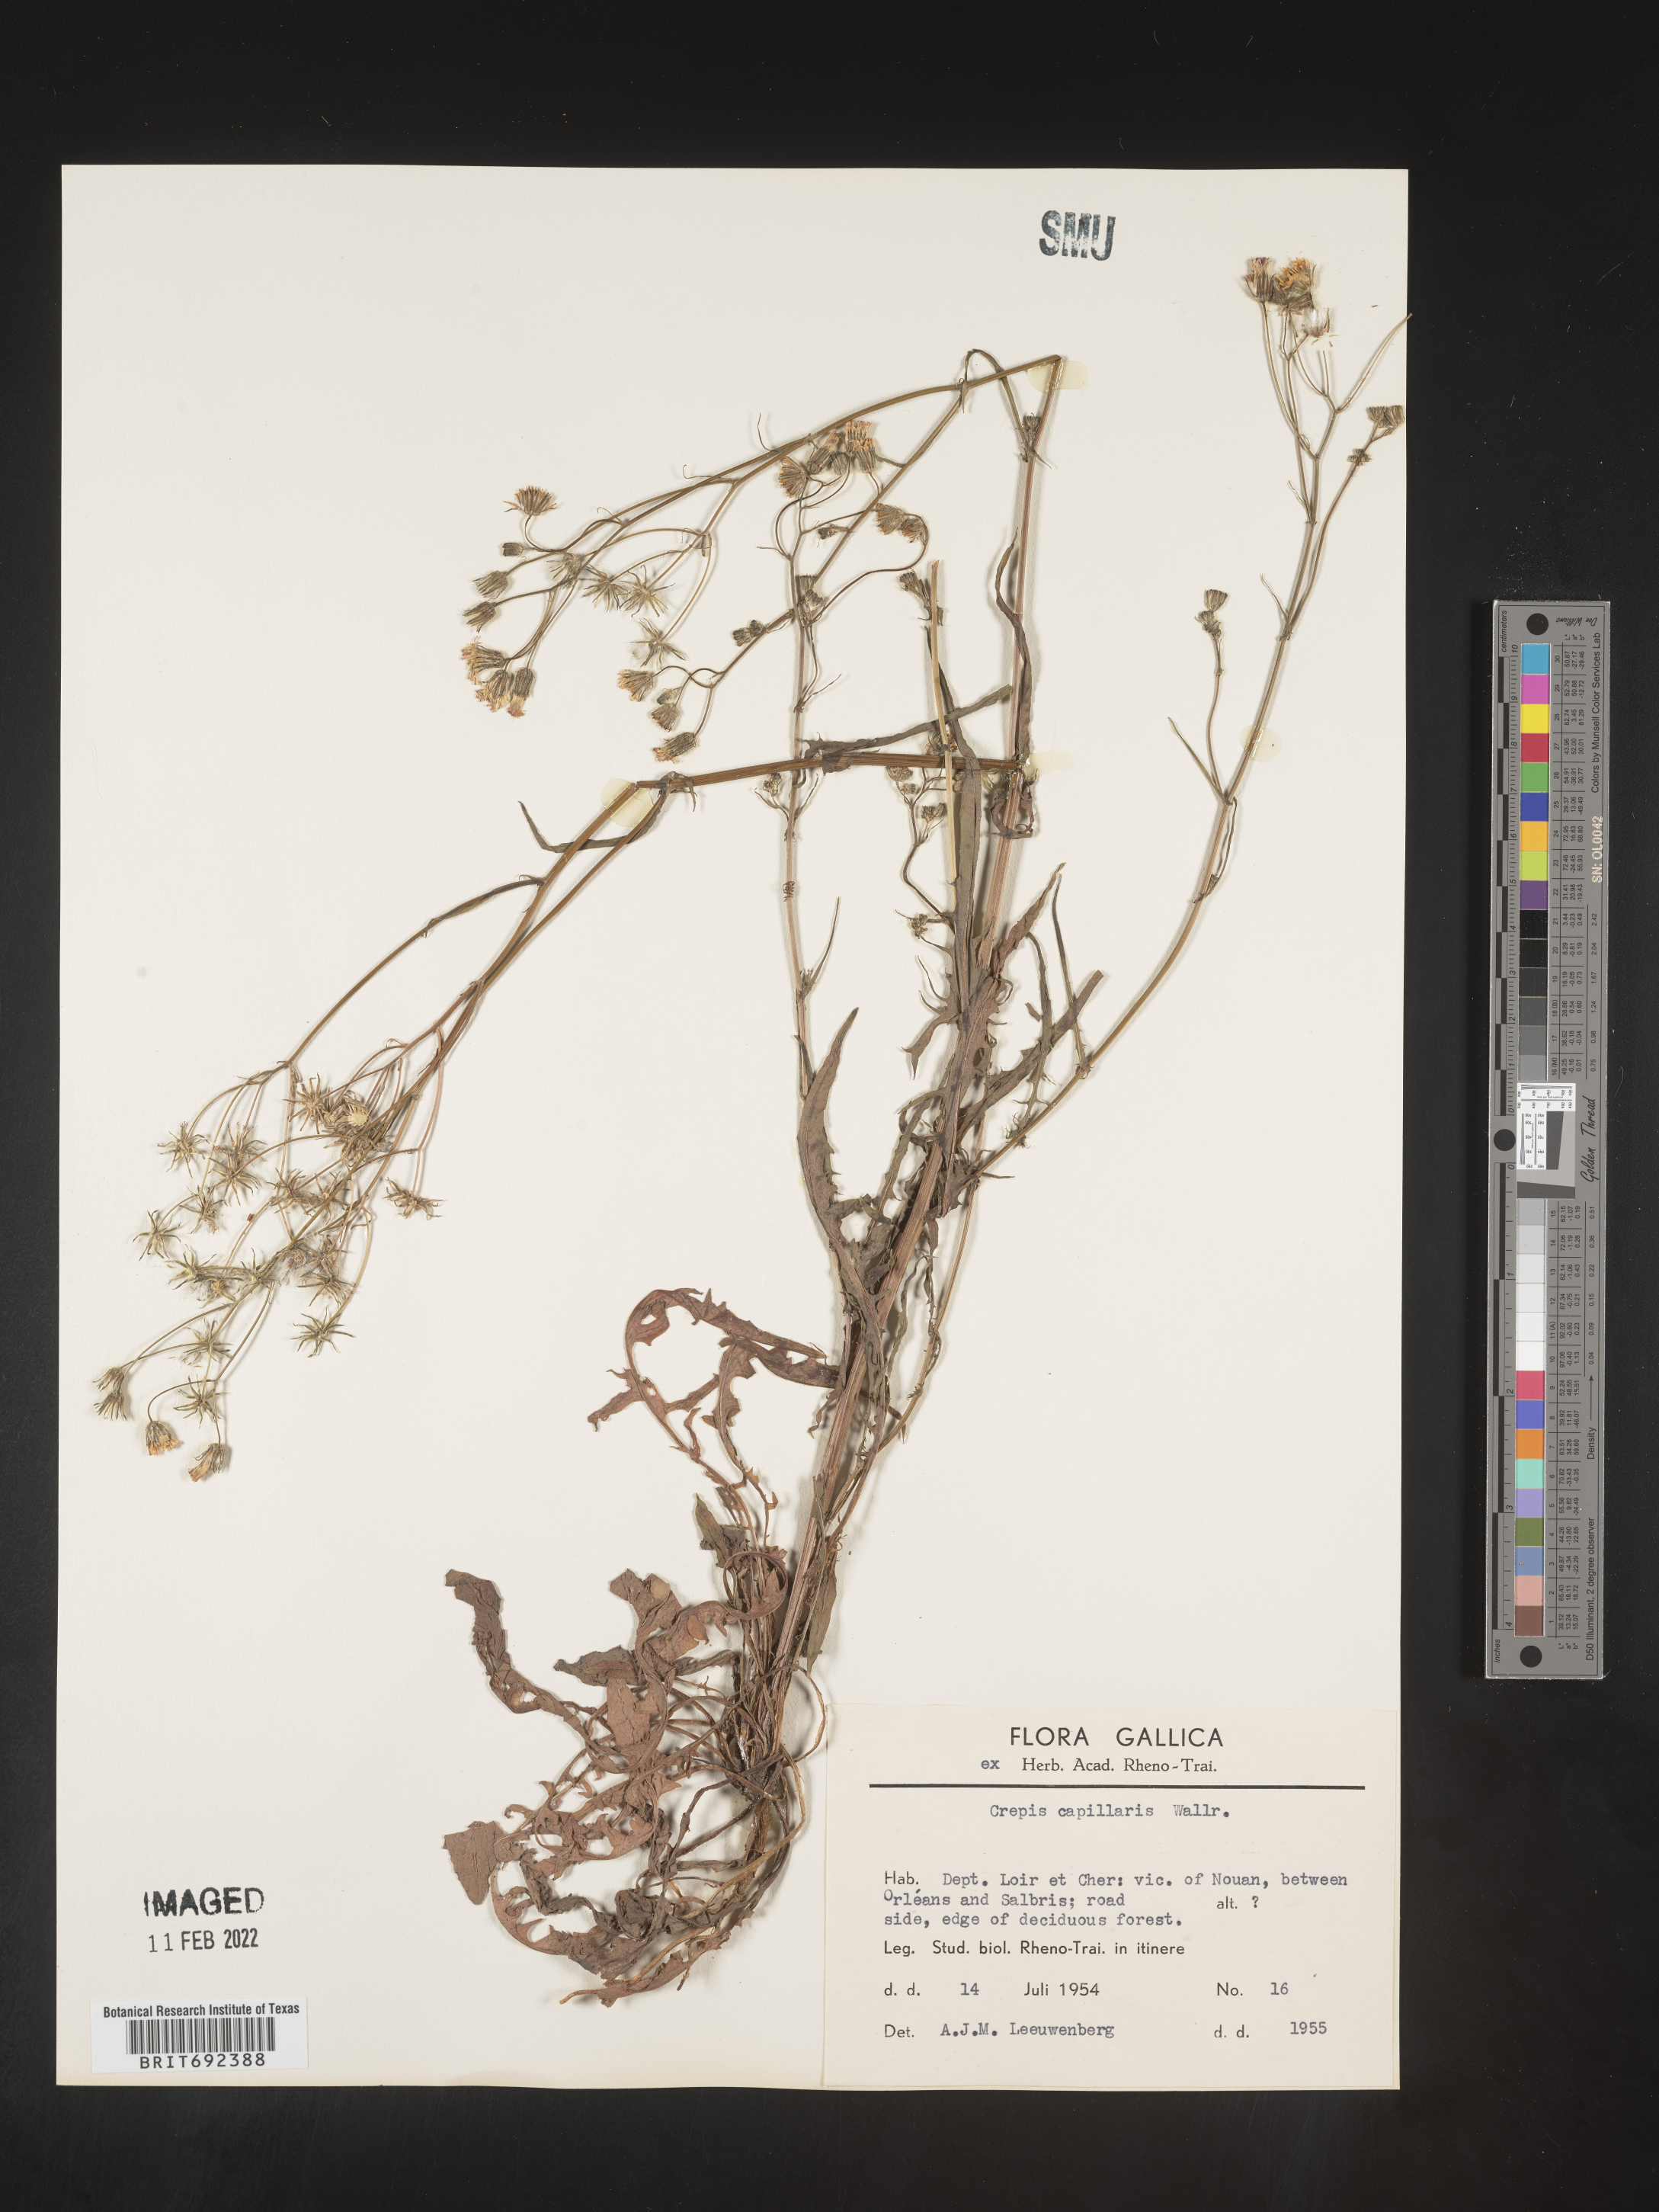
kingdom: Plantae
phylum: Tracheophyta
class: Magnoliopsida
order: Asterales
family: Asteraceae
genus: Crepis
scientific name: Crepis
